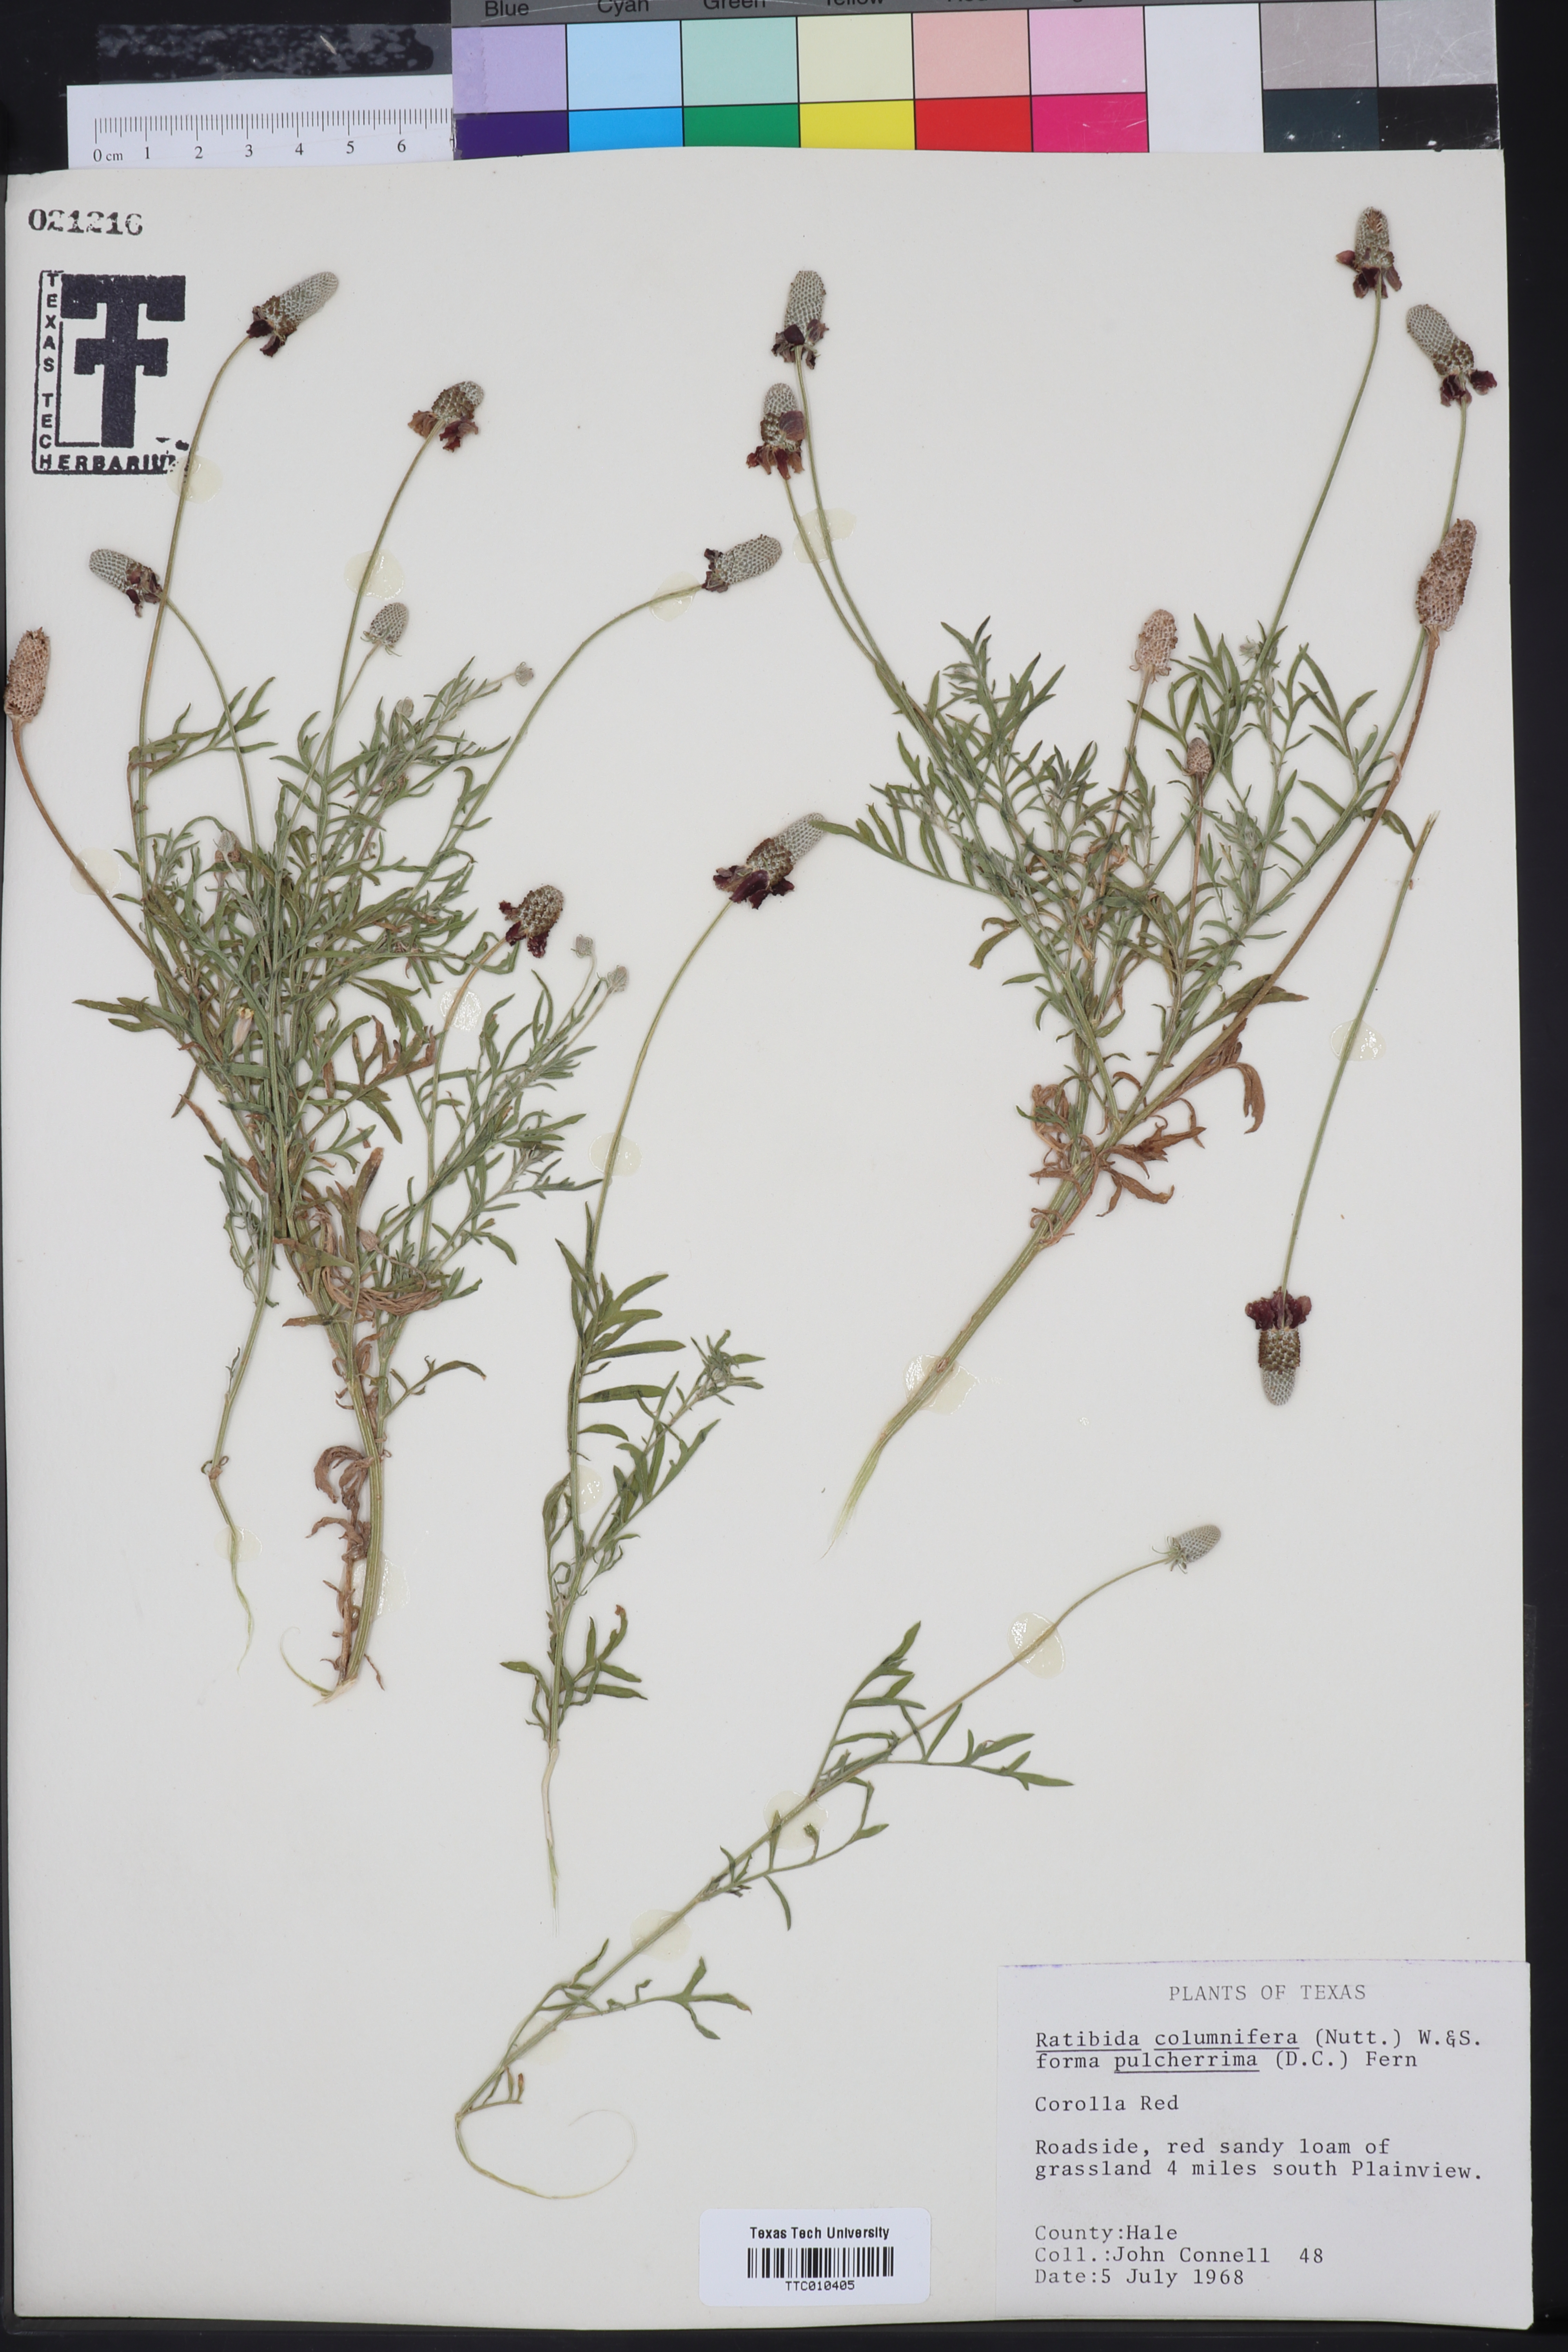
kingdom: Plantae
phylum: Tracheophyta
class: Magnoliopsida
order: Asterales
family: Asteraceae
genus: Ratibida
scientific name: Ratibida columnifera
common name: Prairie coneflower
